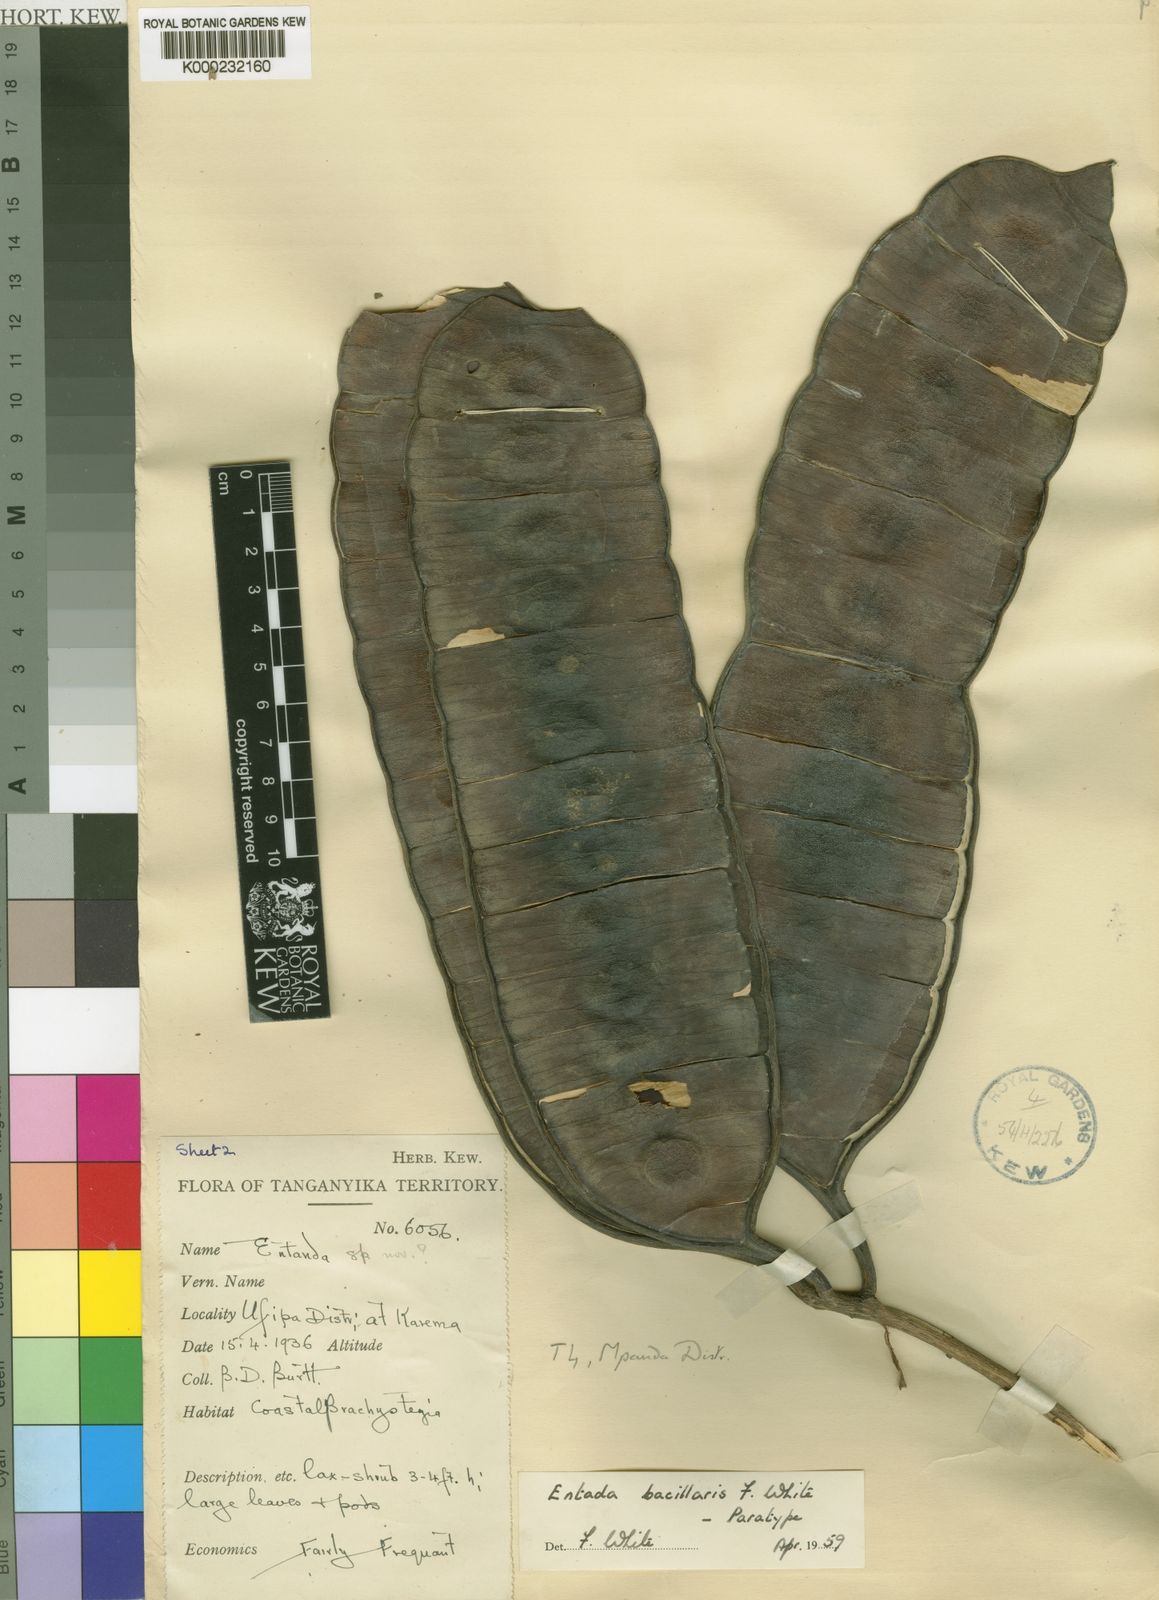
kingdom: Plantae
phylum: Tracheophyta
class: Magnoliopsida
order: Fabales
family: Fabaceae
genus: Entada
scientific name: Entada bacillaris
